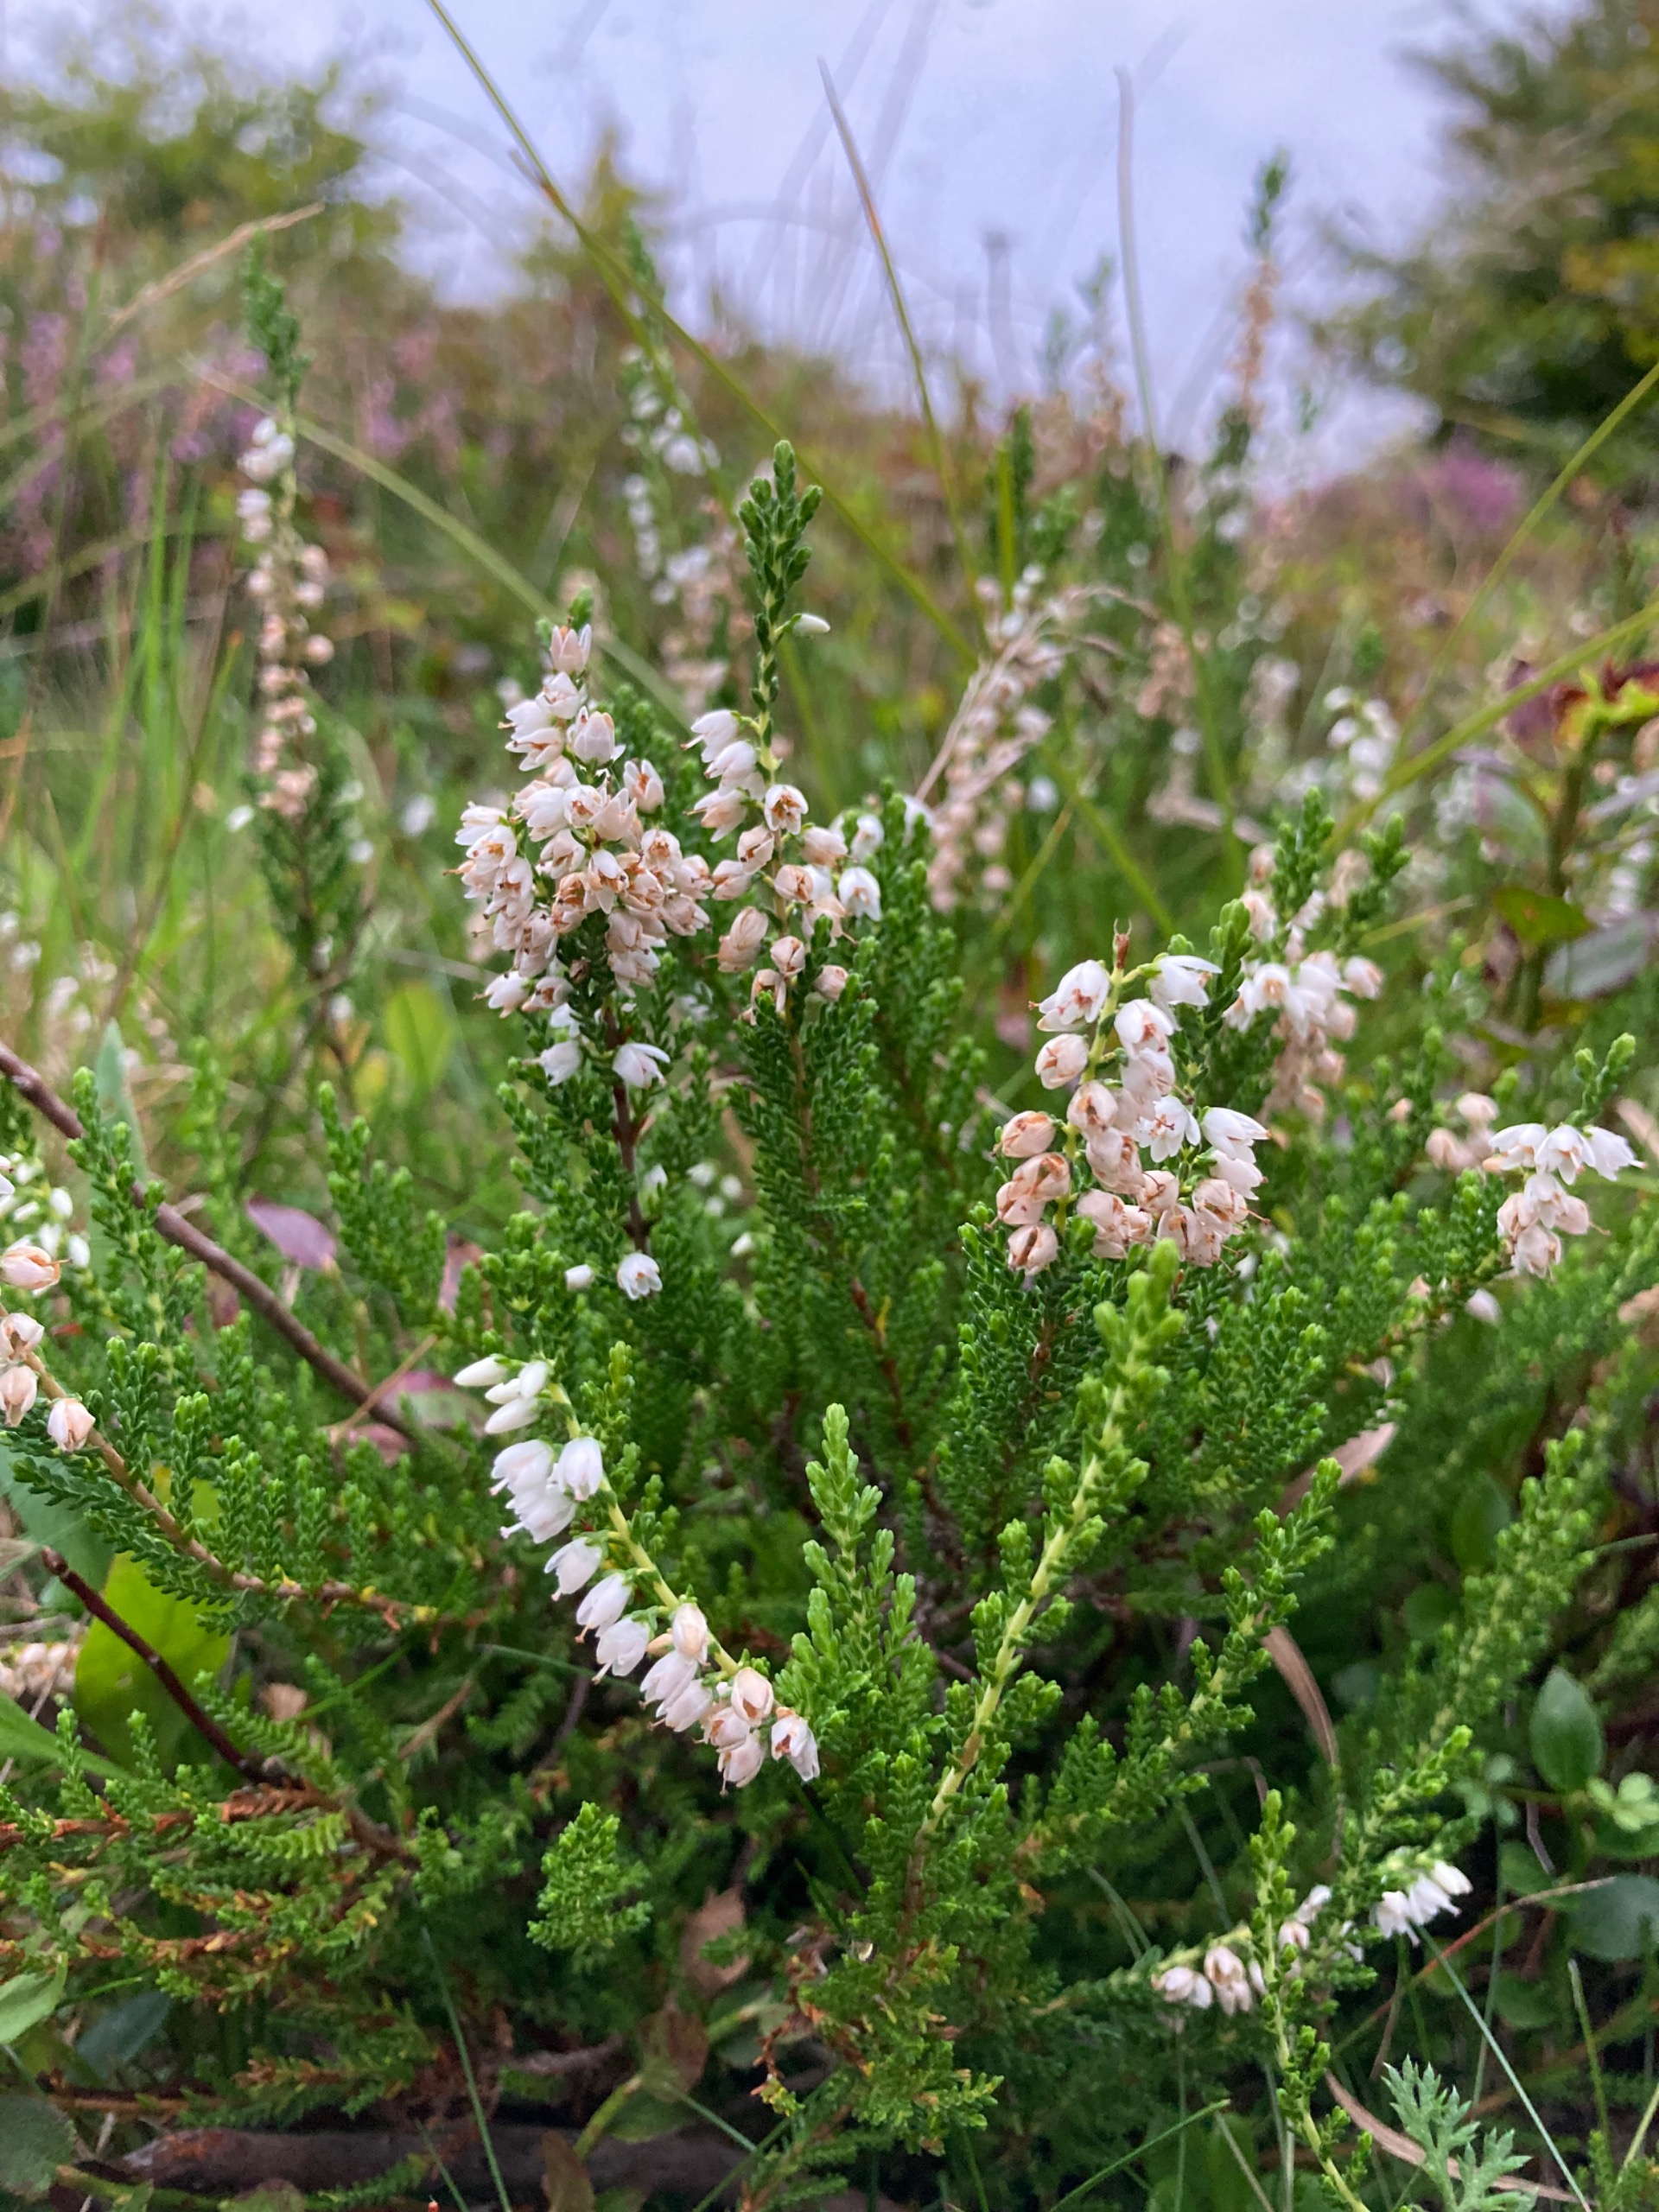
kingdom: Plantae
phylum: Tracheophyta
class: Magnoliopsida
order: Ericales
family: Ericaceae
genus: Calluna
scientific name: Calluna vulgaris
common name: Hedelyng
